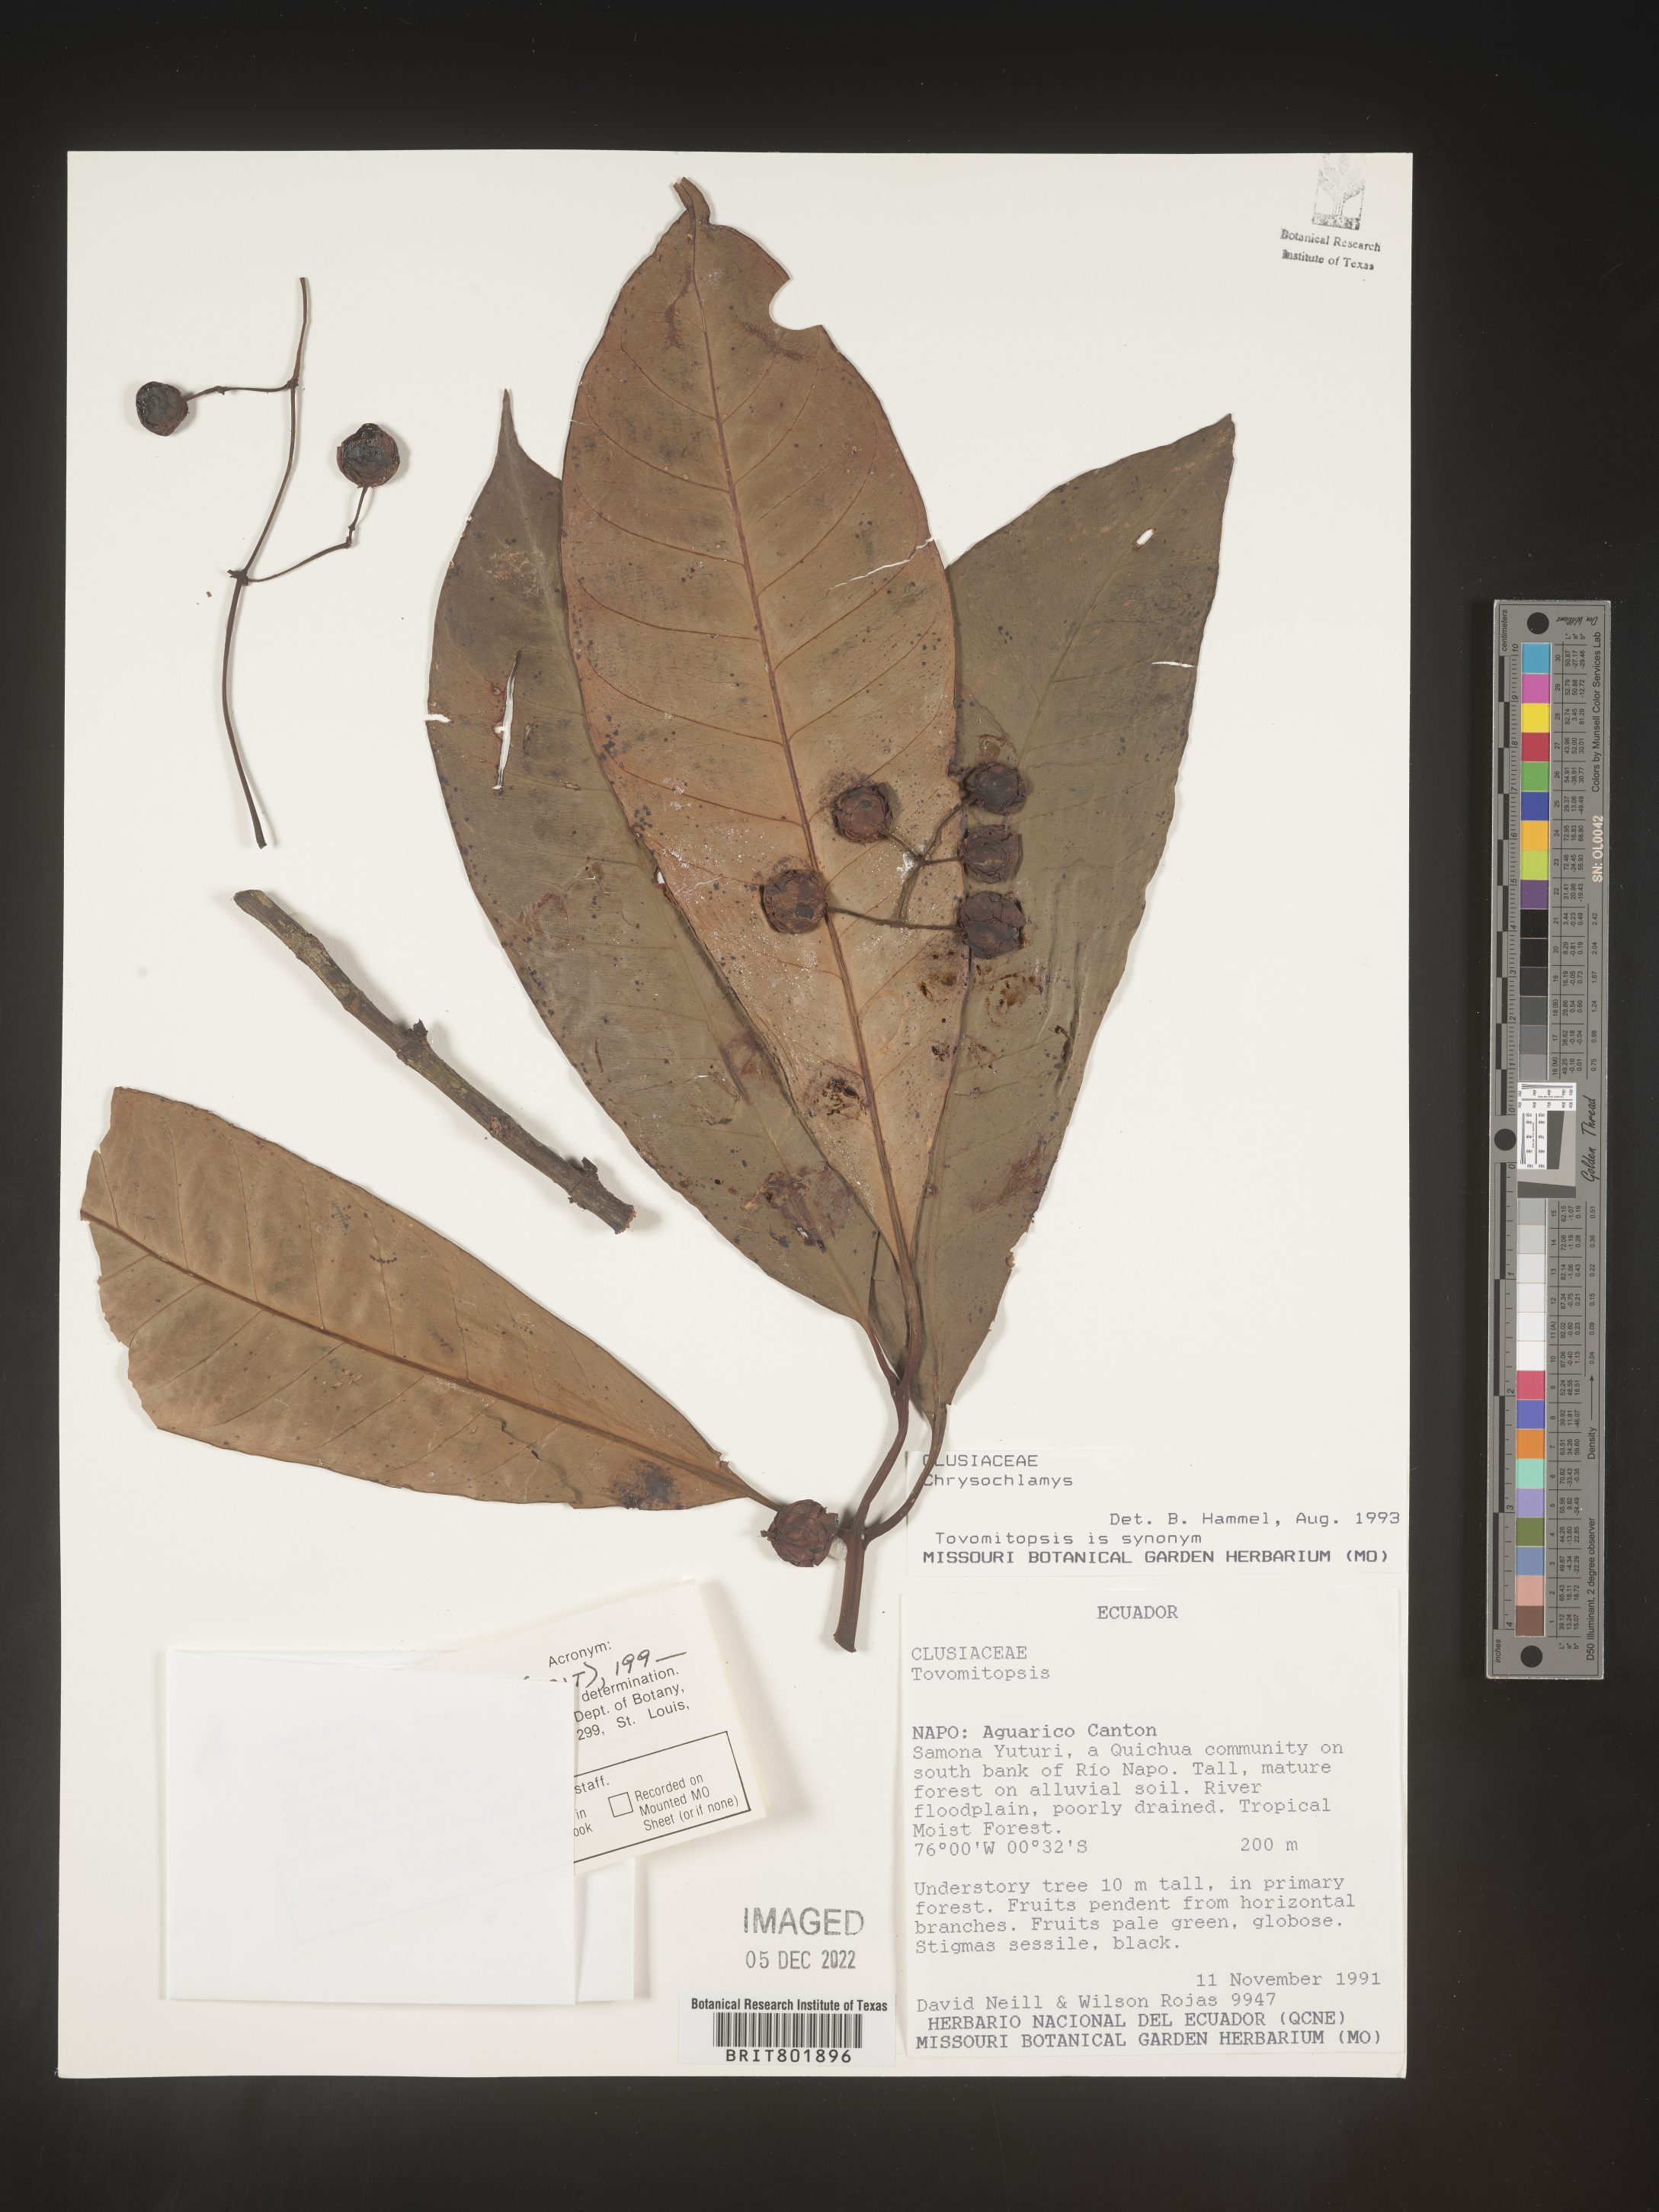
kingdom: Plantae
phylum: Tracheophyta
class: Magnoliopsida
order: Malpighiales
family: Clusiaceae
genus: Chrysochlamys
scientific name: Chrysochlamys
